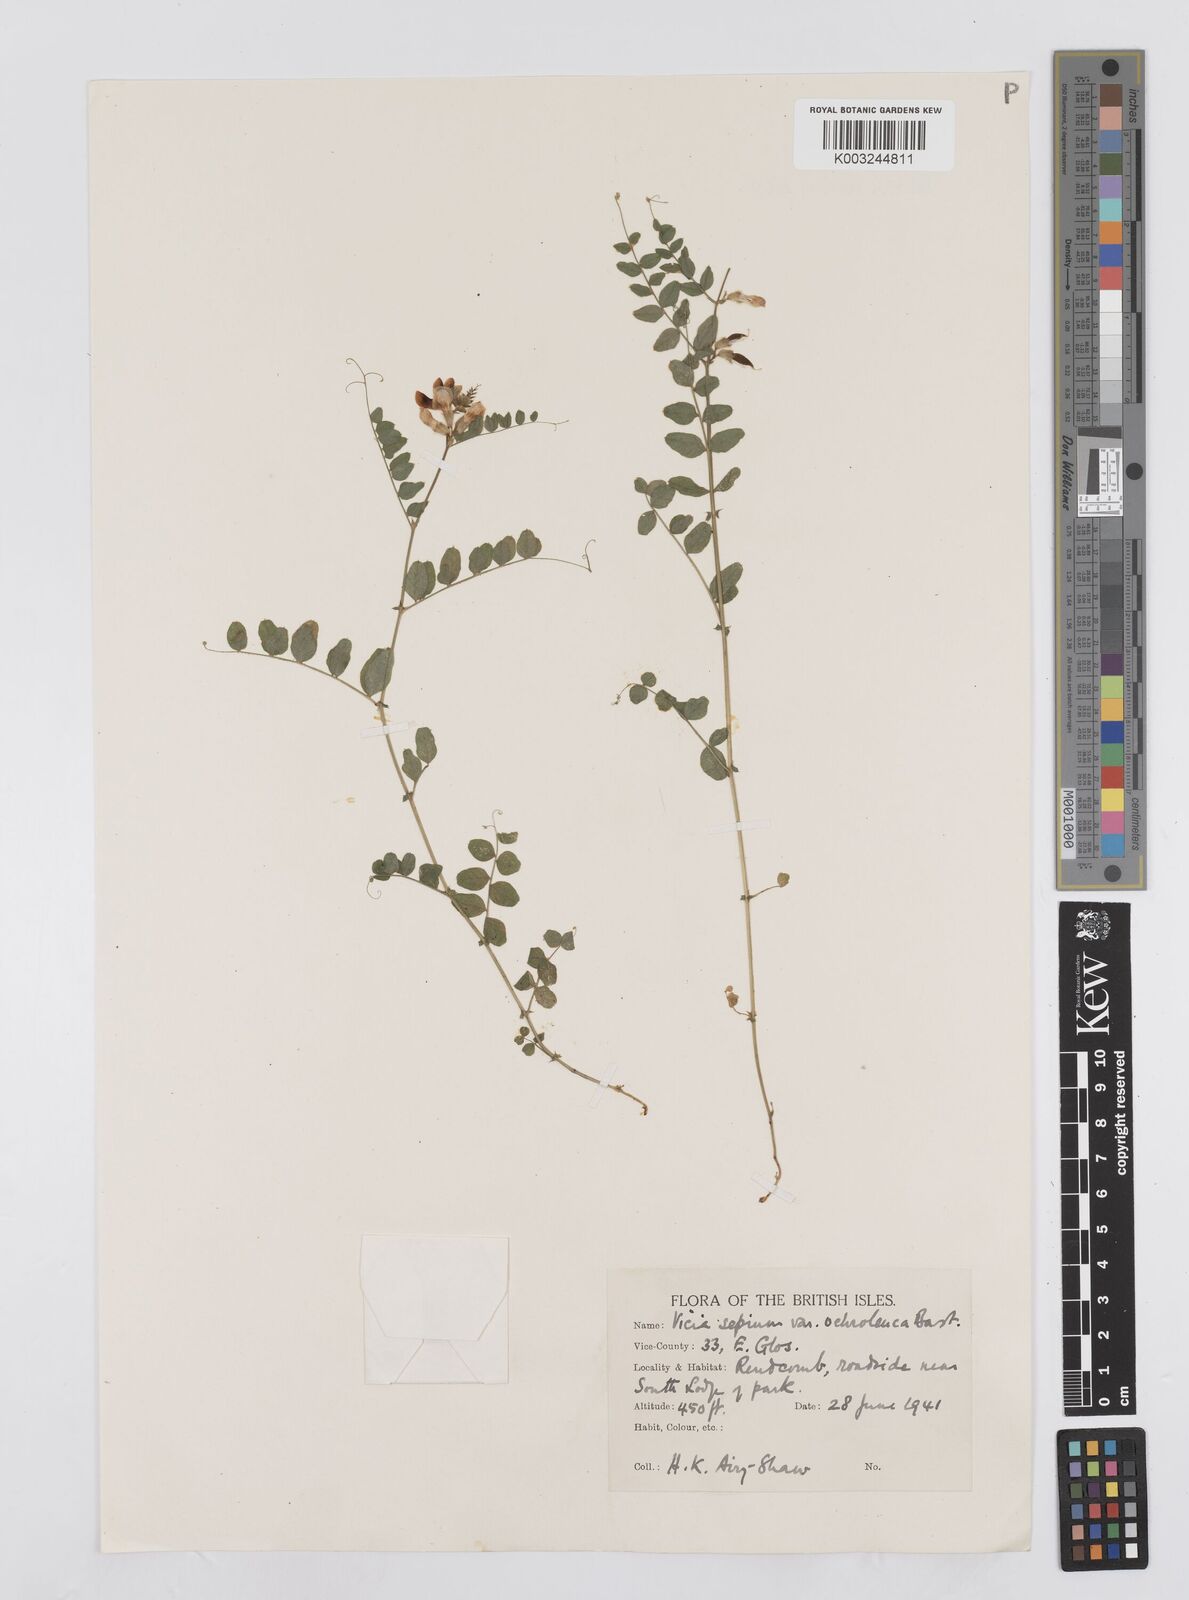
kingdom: Plantae
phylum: Tracheophyta
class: Magnoliopsida
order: Fabales
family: Fabaceae
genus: Vicia
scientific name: Vicia sepium
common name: Bush vetch
